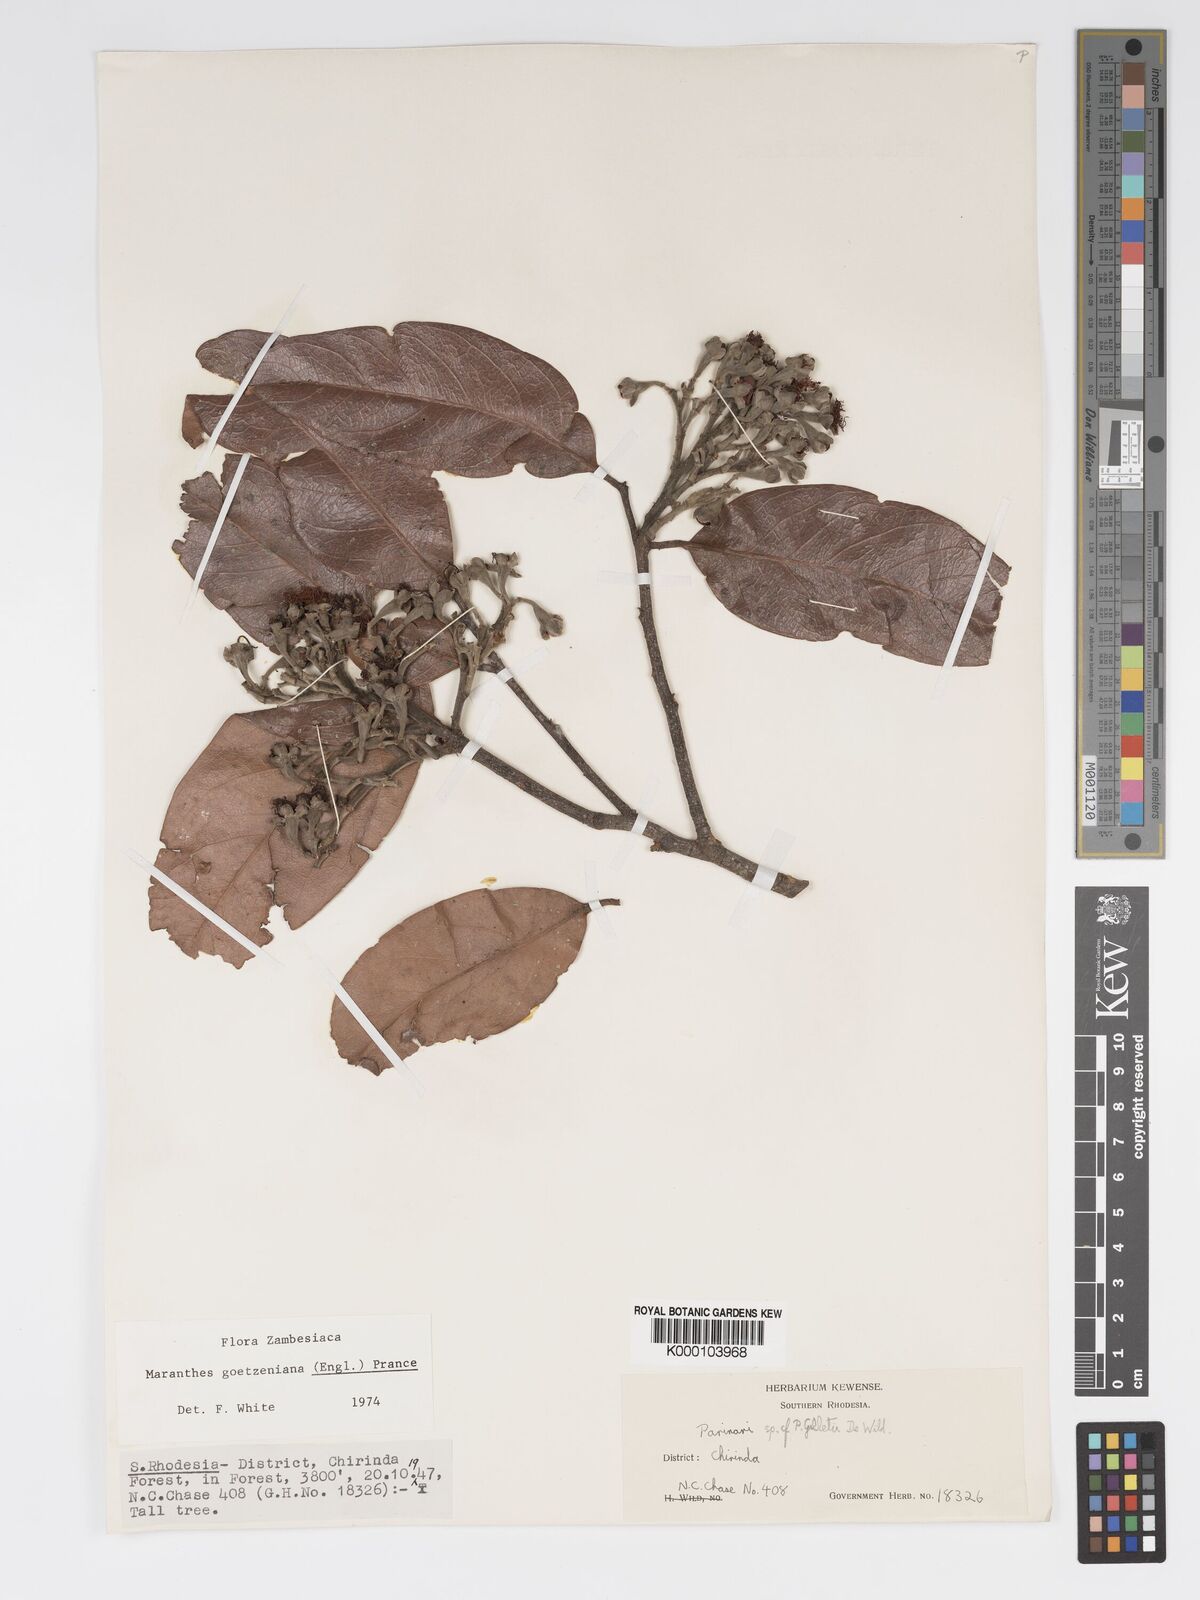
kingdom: Plantae
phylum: Tracheophyta
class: Magnoliopsida
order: Malpighiales
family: Chrysobalanaceae
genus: Maranthes
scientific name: Maranthes goetzeniana
